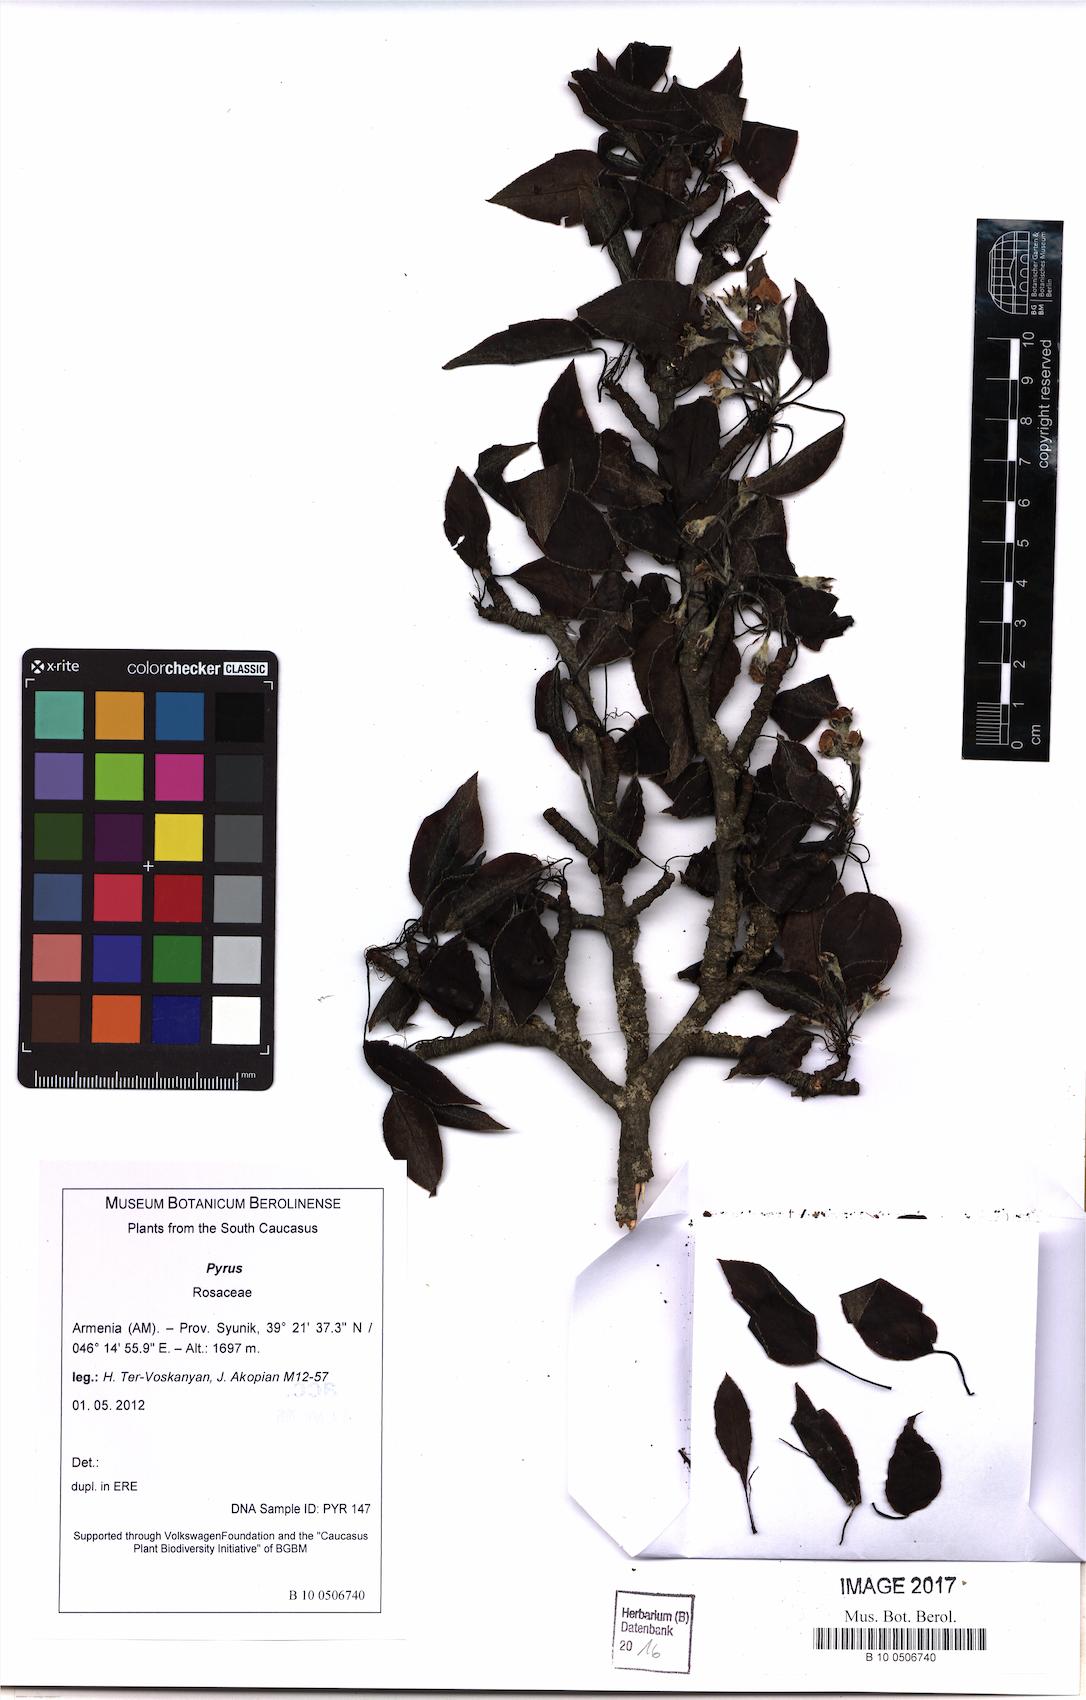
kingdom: Plantae
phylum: Tracheophyta
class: Magnoliopsida
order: Rosales
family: Rosaceae
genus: Pyrus
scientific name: Pyrus
